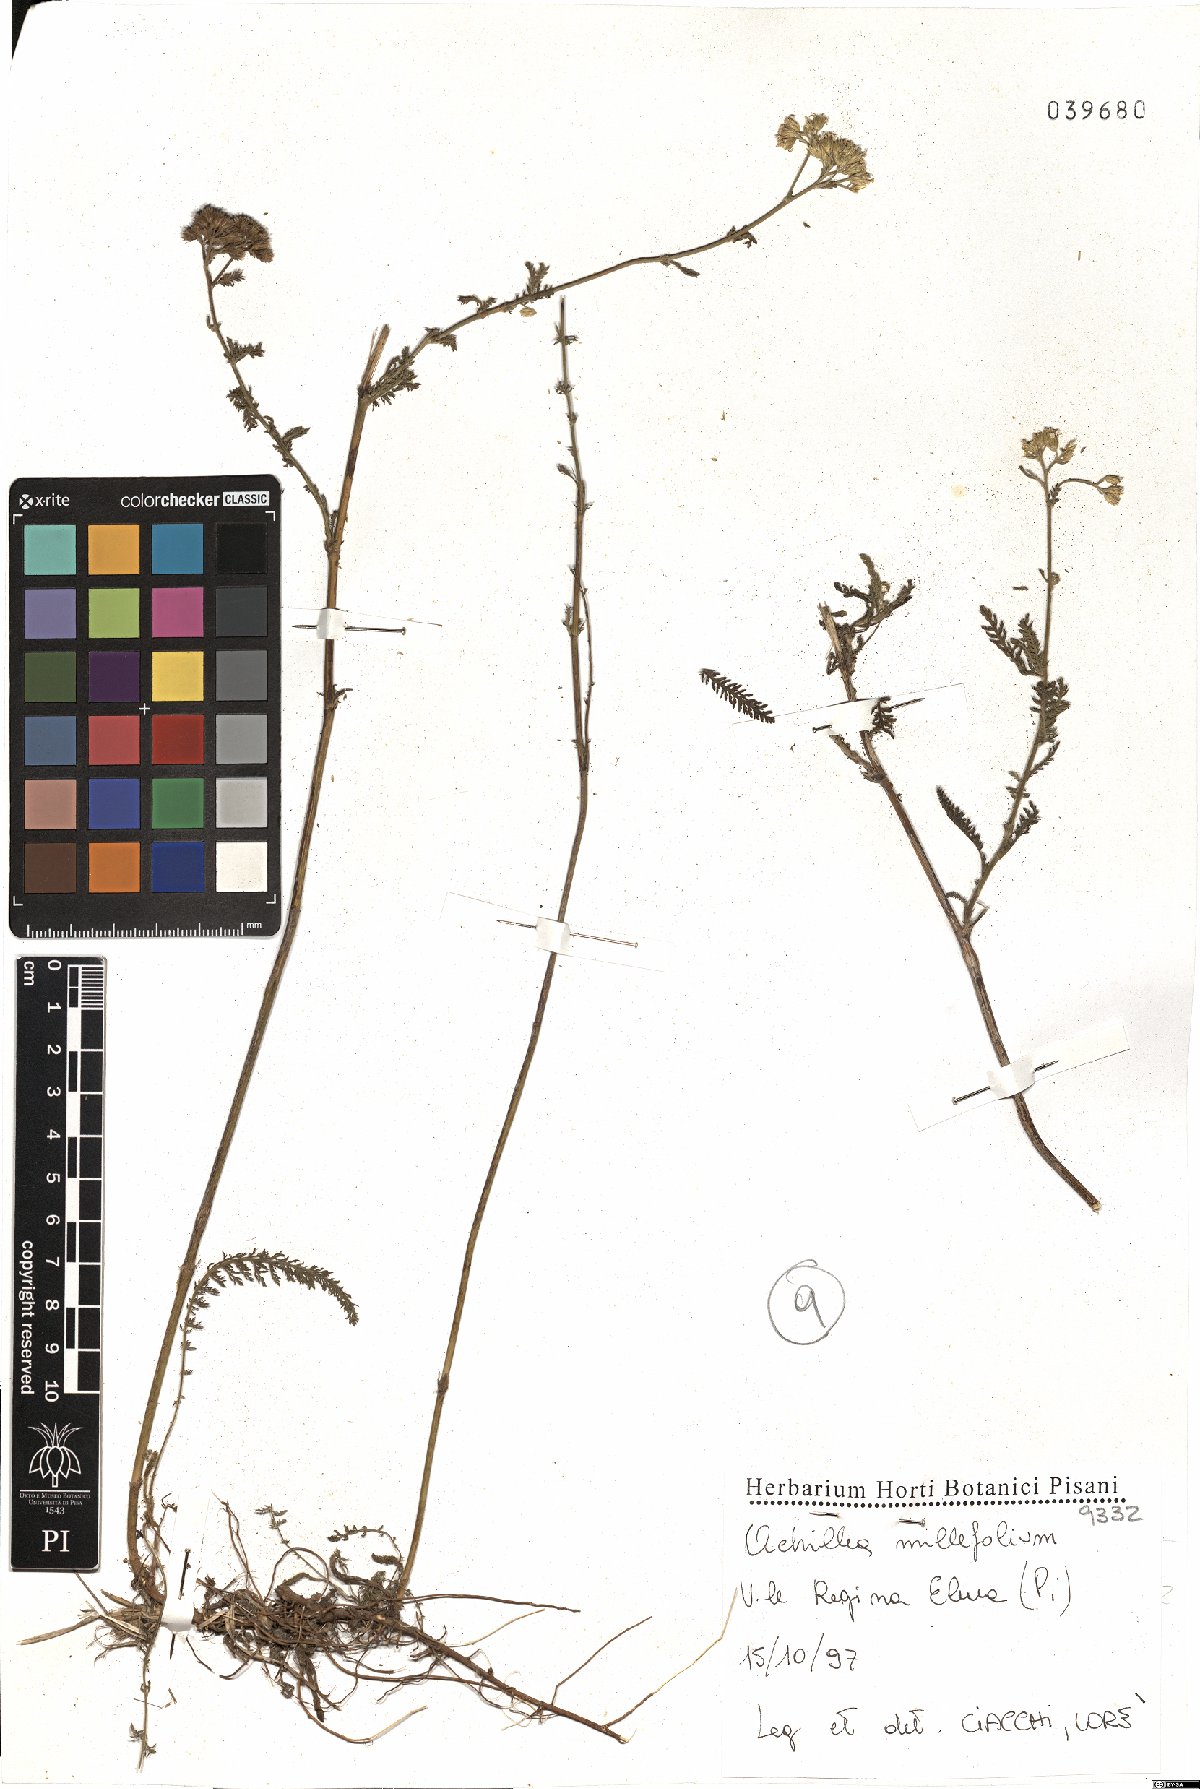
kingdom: Plantae
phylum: Tracheophyta
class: Magnoliopsida
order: Asterales
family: Asteraceae
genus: Achillea
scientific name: Achillea millefolium
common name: Yarrow
